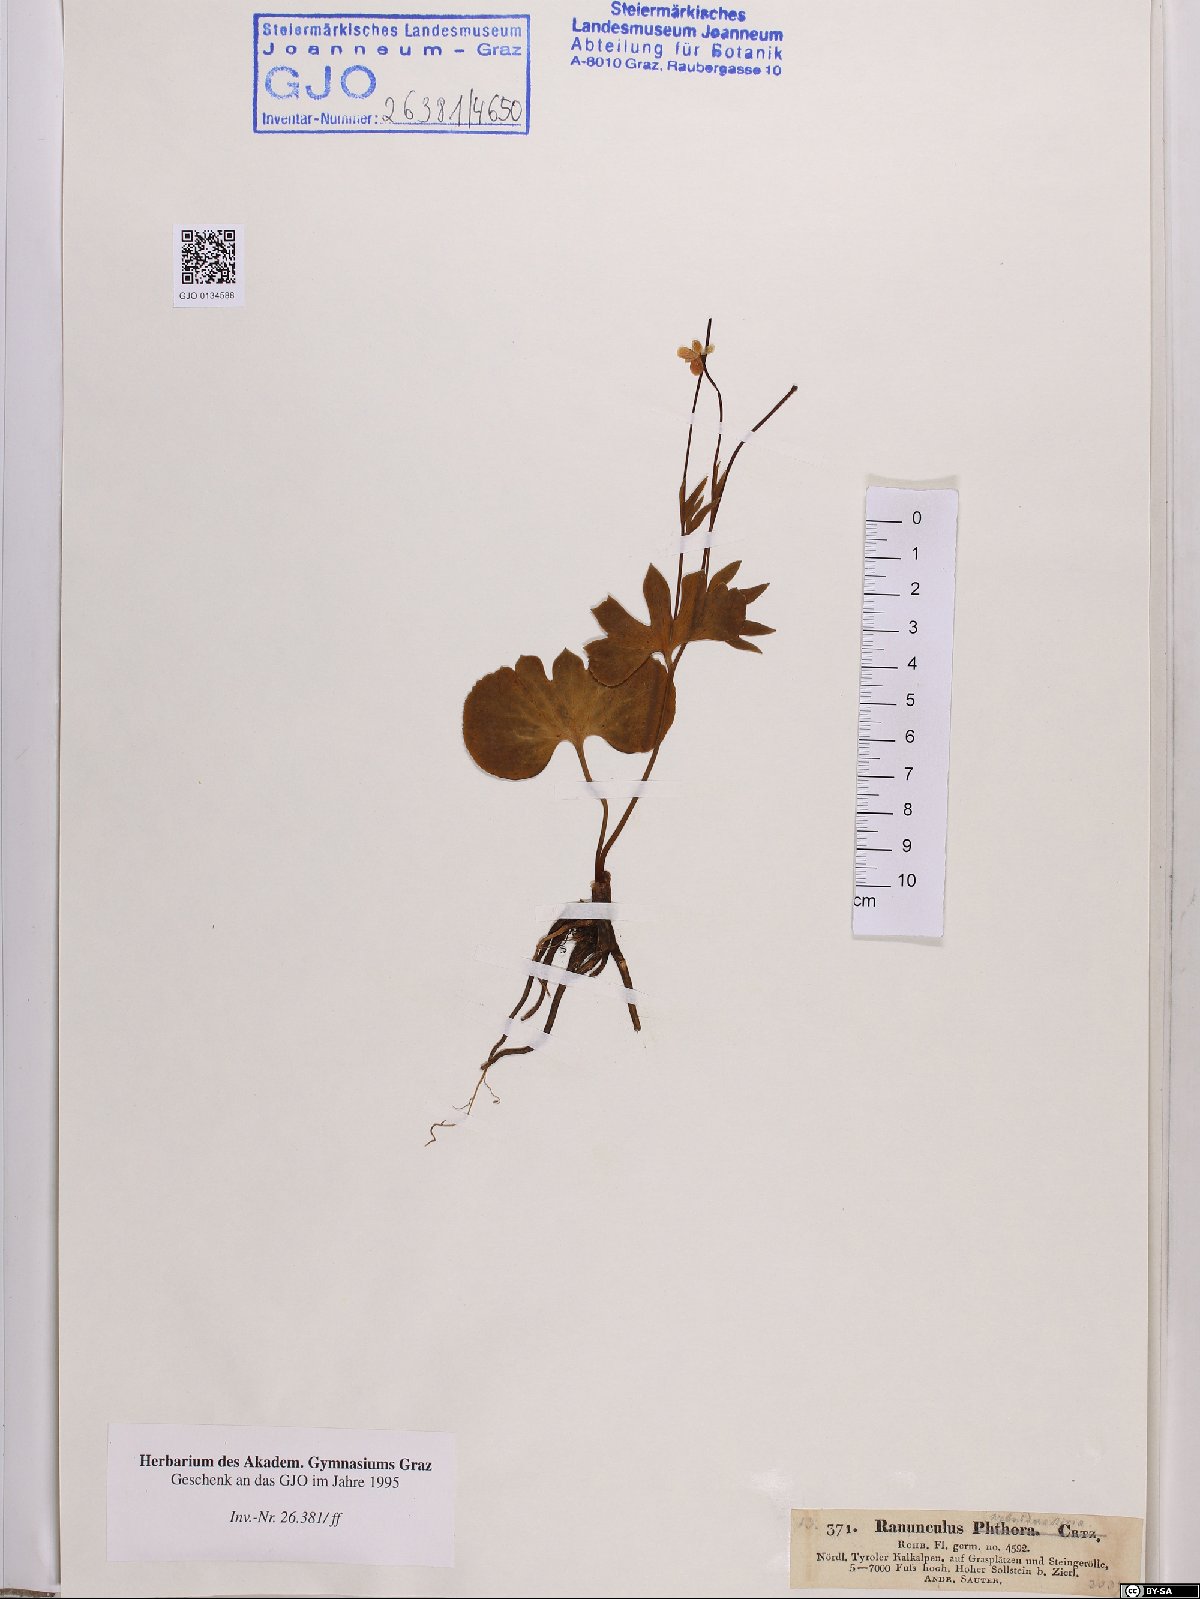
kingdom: Plantae
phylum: Tracheophyta
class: Magnoliopsida
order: Ranunculales
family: Ranunculaceae
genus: Ranunculus
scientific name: Ranunculus phthora
